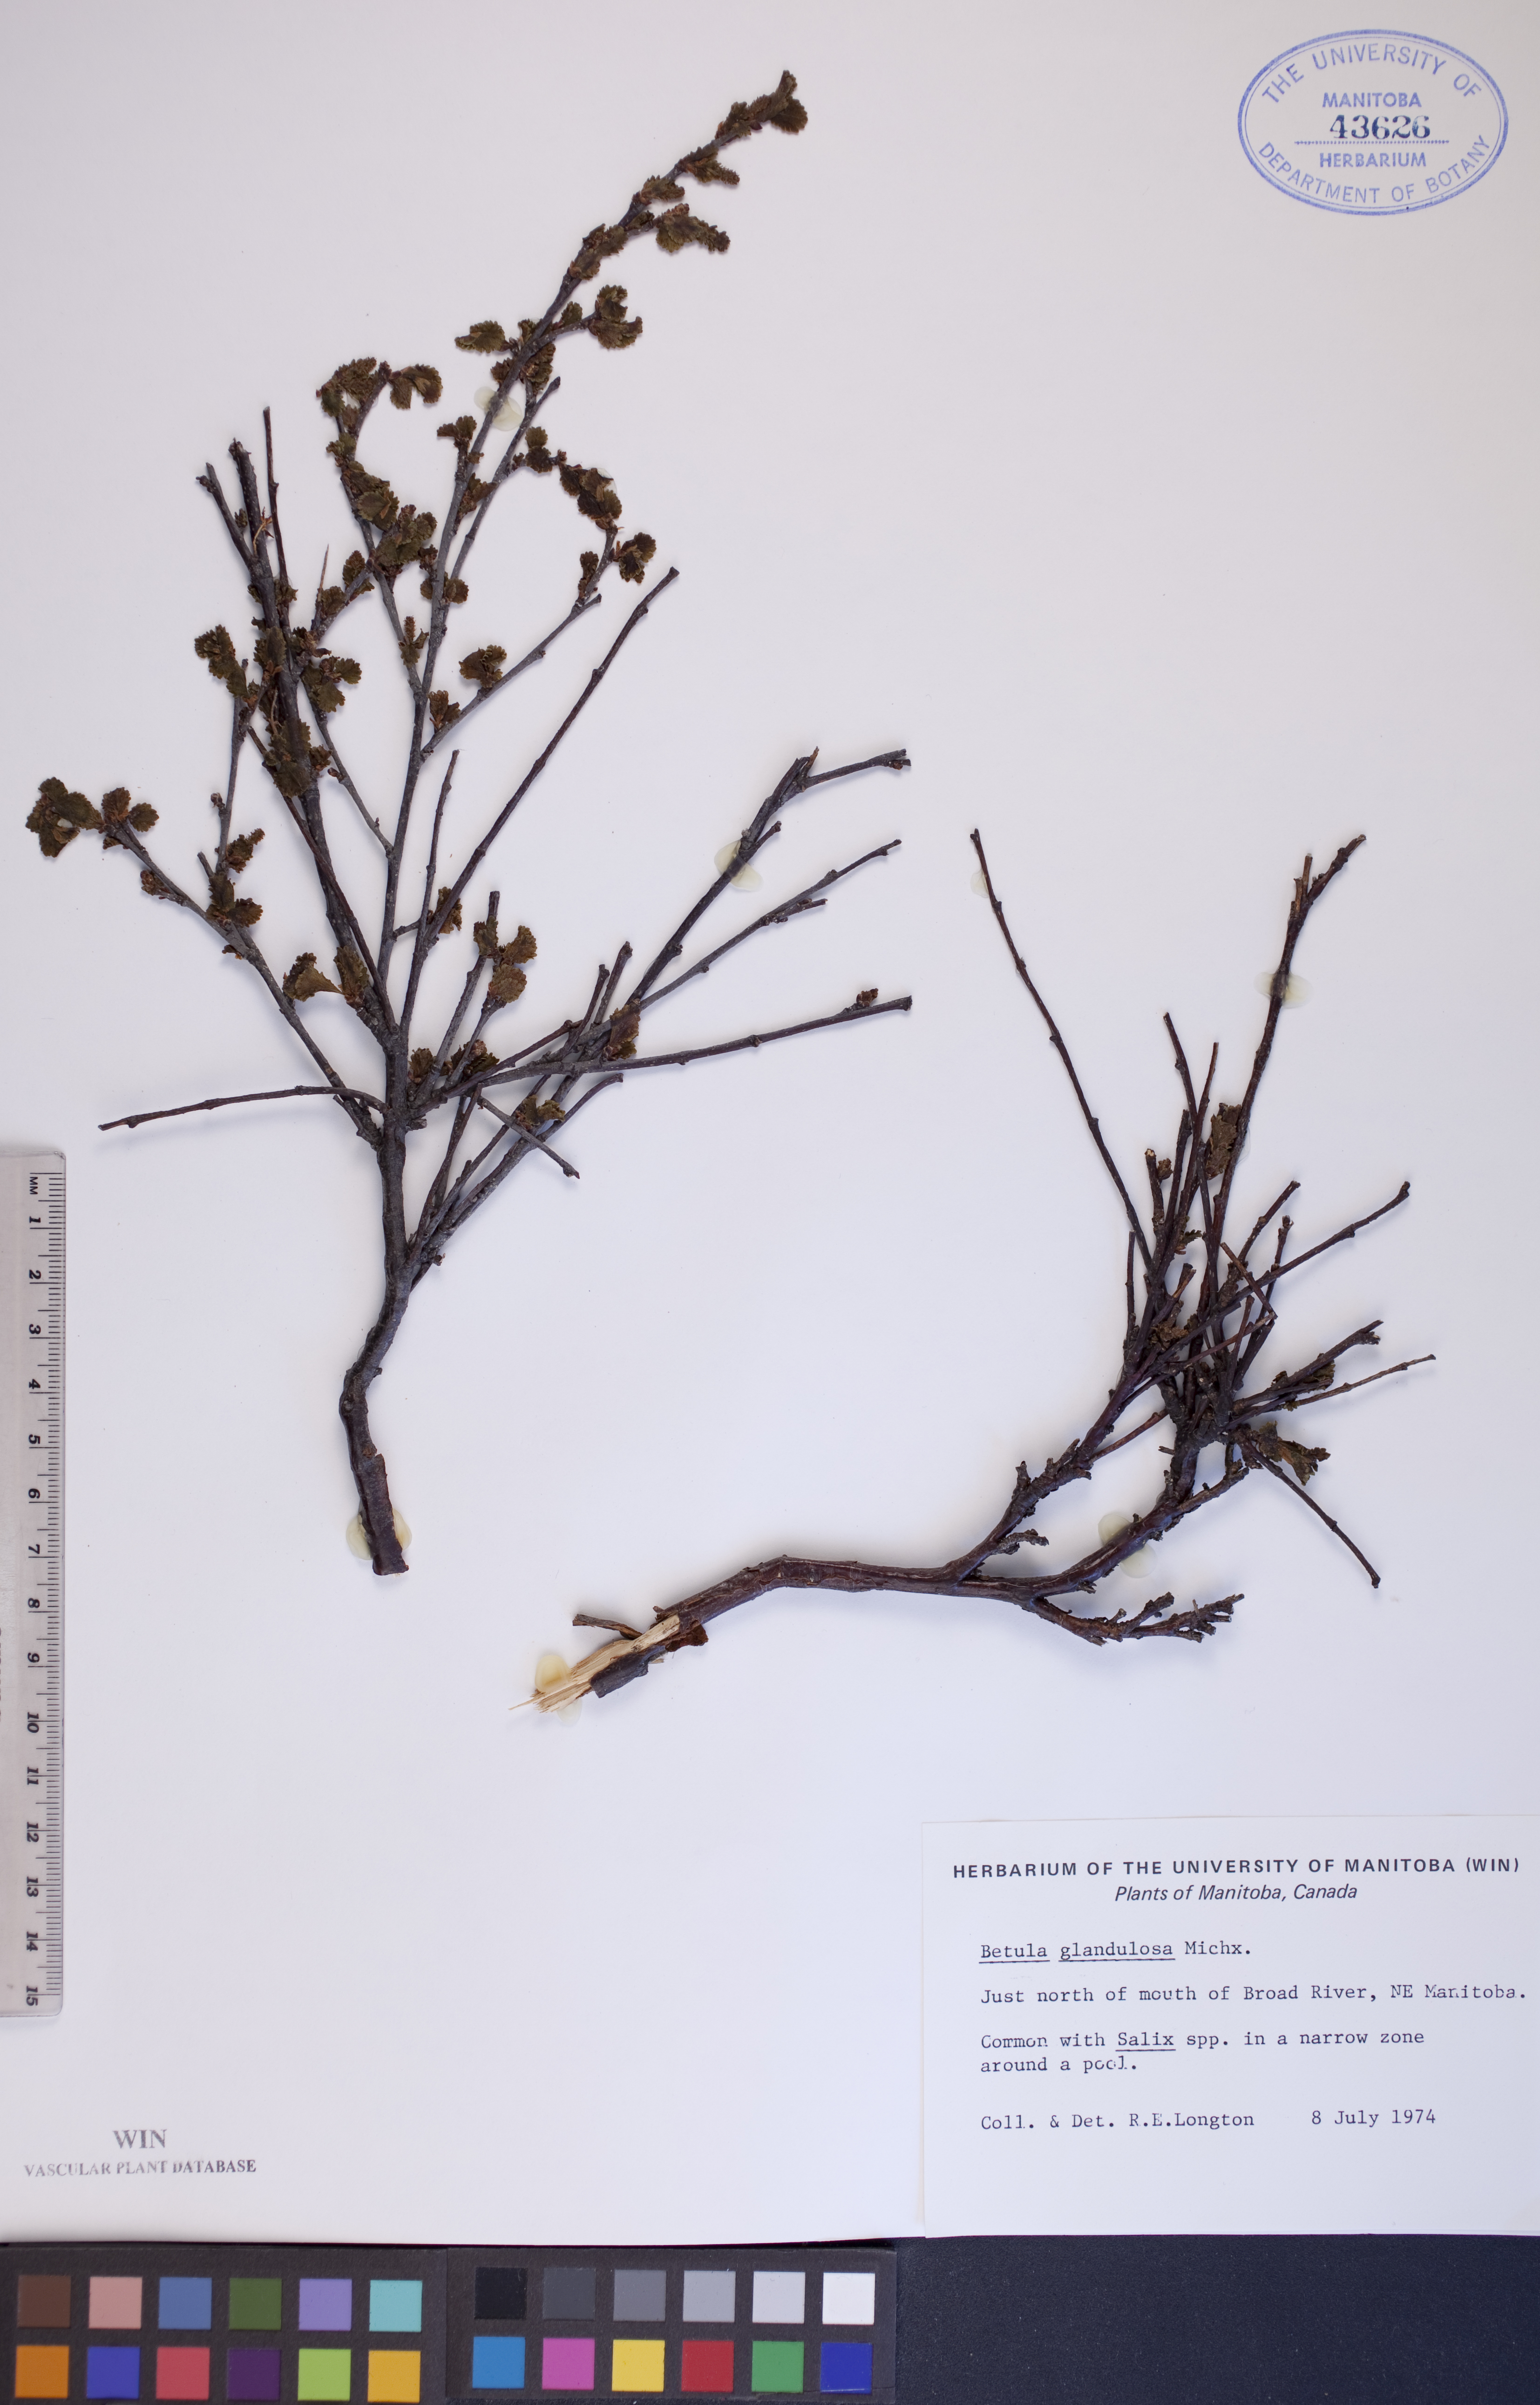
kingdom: Plantae
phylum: Tracheophyta
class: Magnoliopsida
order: Fagales
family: Betulaceae
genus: Betula
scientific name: Betula glandulosa
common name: Dwarf birch
